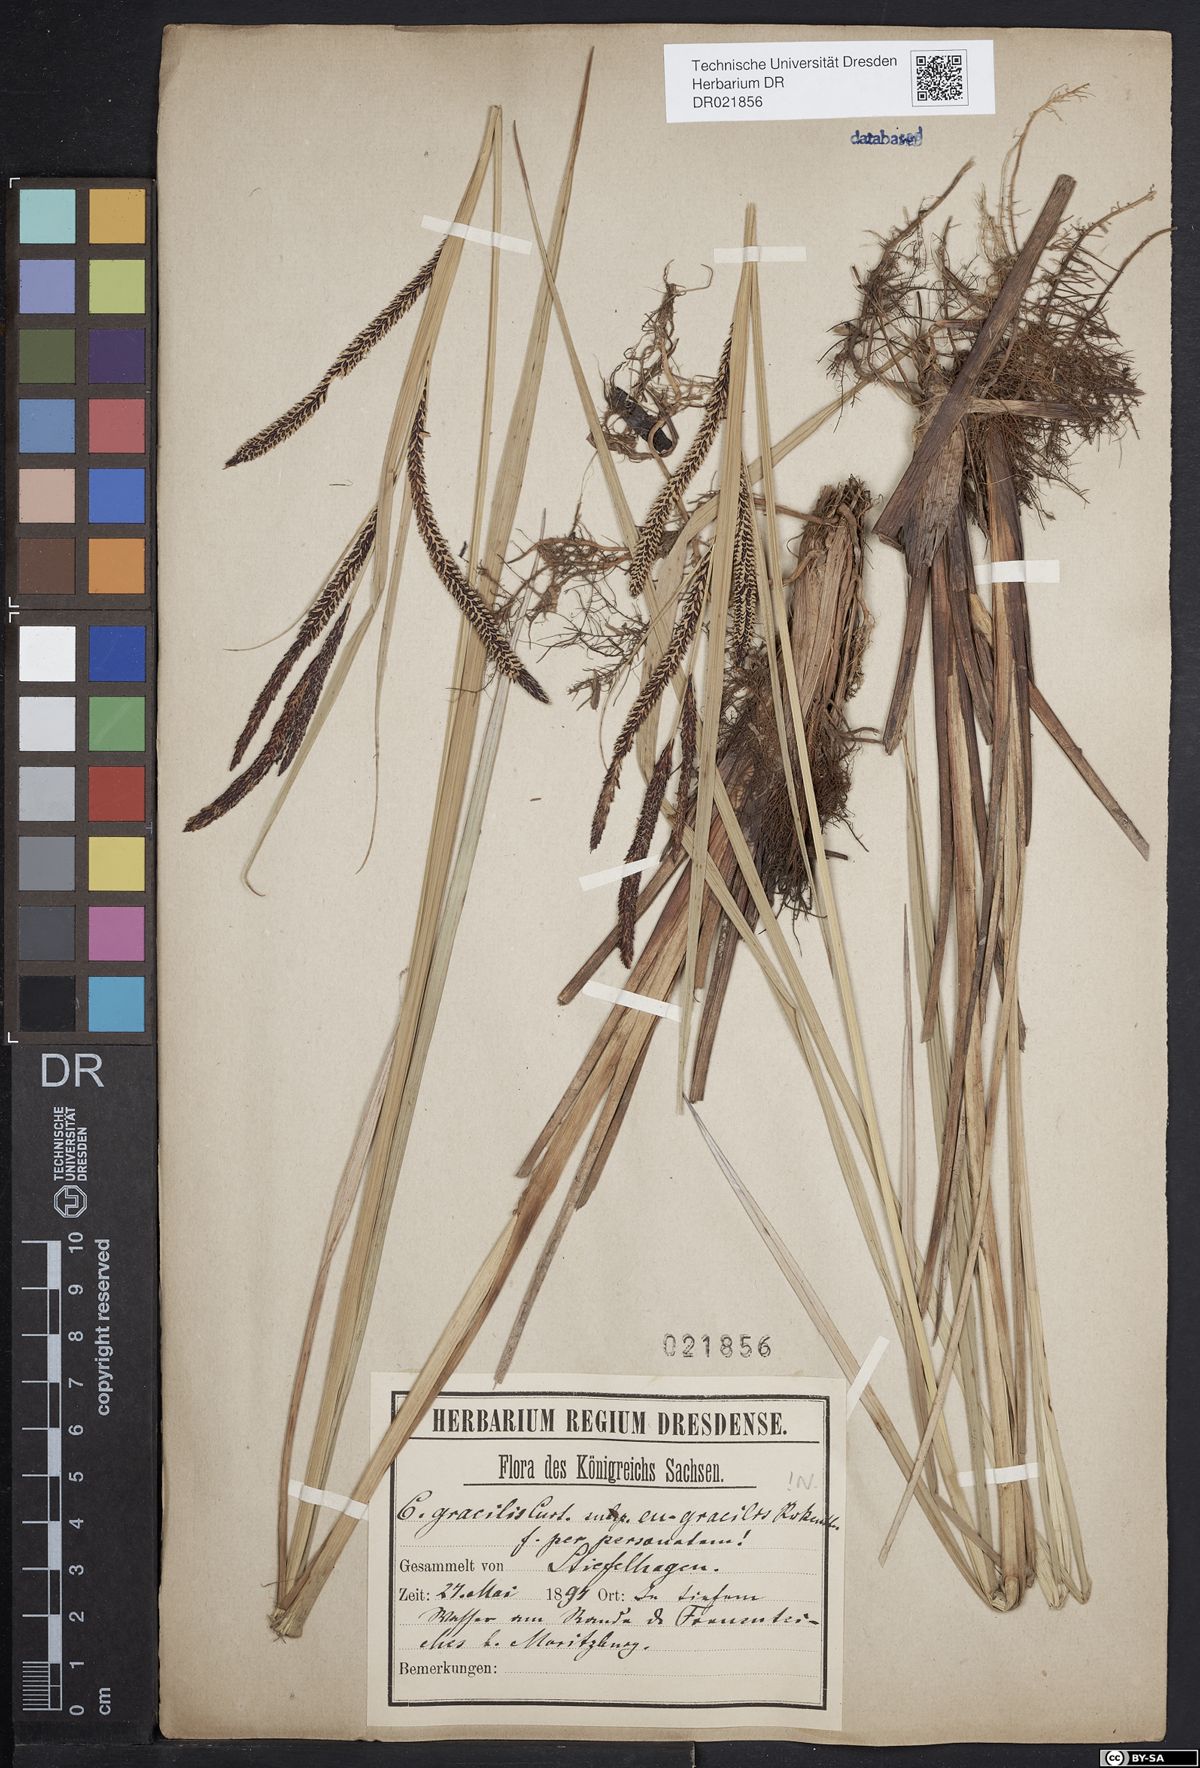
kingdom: Plantae
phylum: Tracheophyta
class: Liliopsida
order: Poales
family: Cyperaceae
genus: Carex
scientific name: Carex acuta
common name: Slender tufted-sedge
